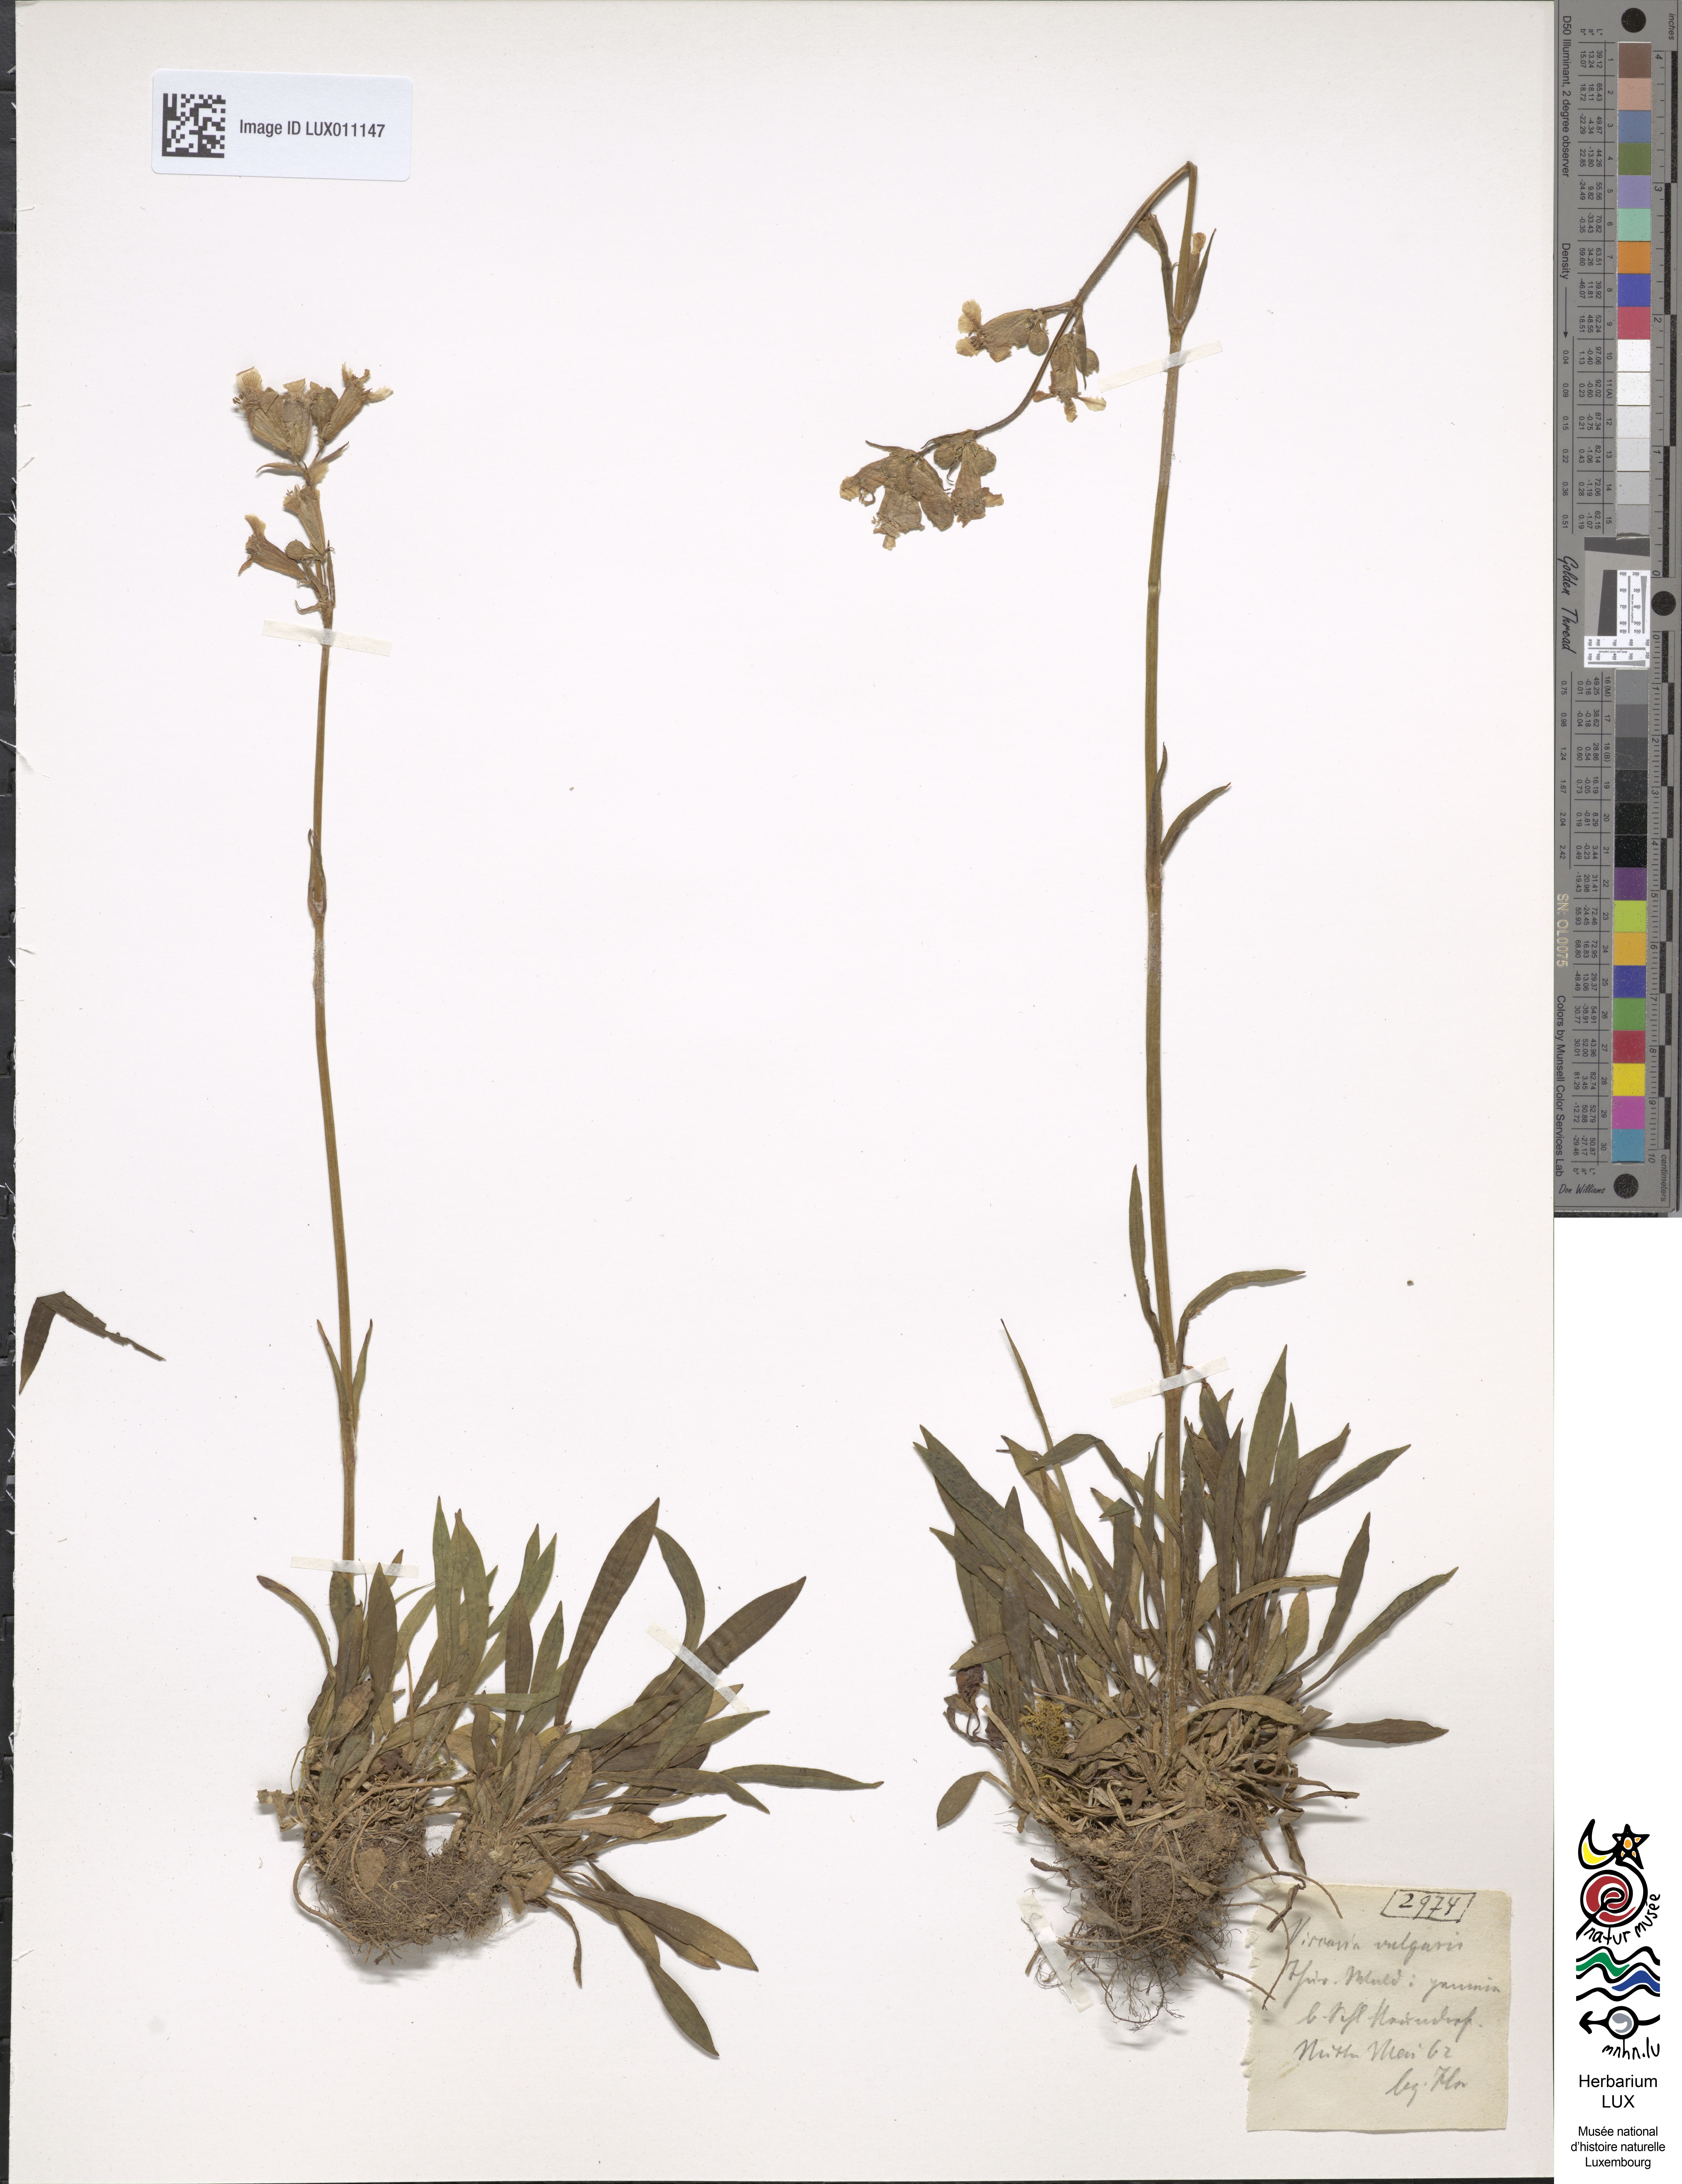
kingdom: Plantae
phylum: Tracheophyta
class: Magnoliopsida
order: Caryophyllales
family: Caryophyllaceae
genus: Viscaria
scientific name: Viscaria vulgaris
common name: Clammy campion
